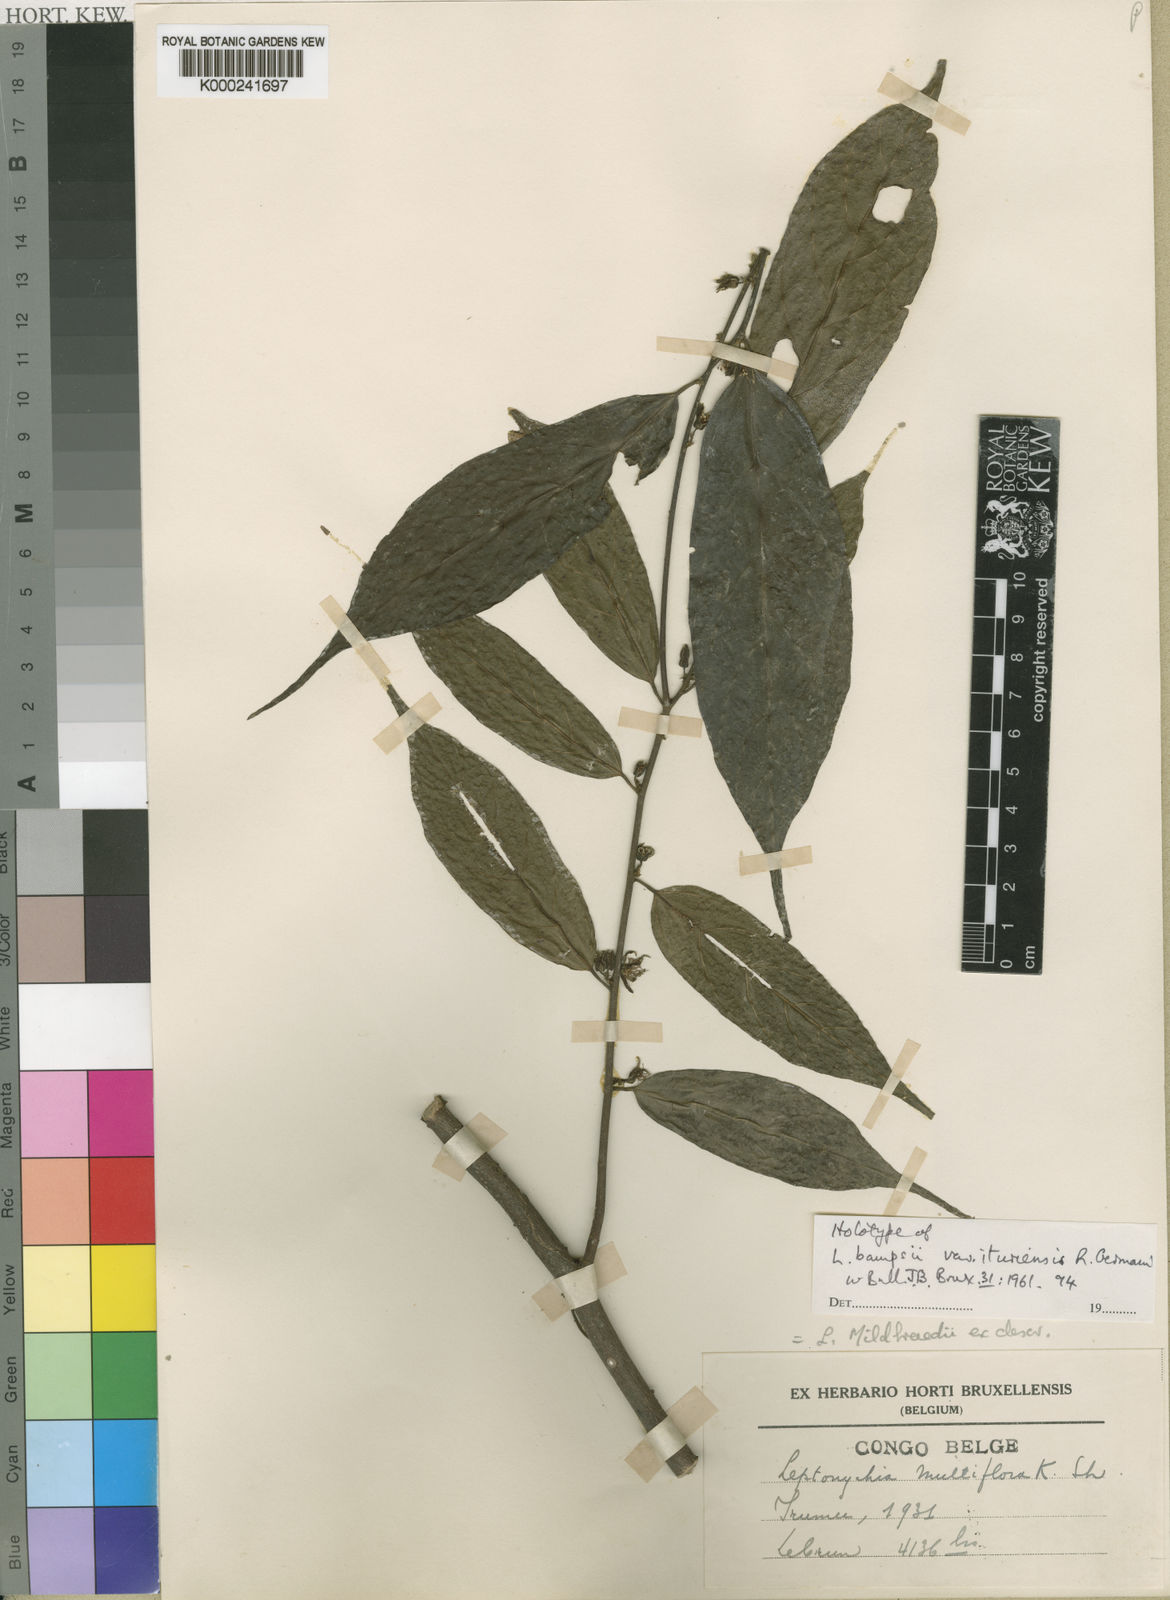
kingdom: Plantae
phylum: Tracheophyta
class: Magnoliopsida
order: Malvales
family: Malvaceae
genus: Leptonychia
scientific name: Leptonychia bampsii
